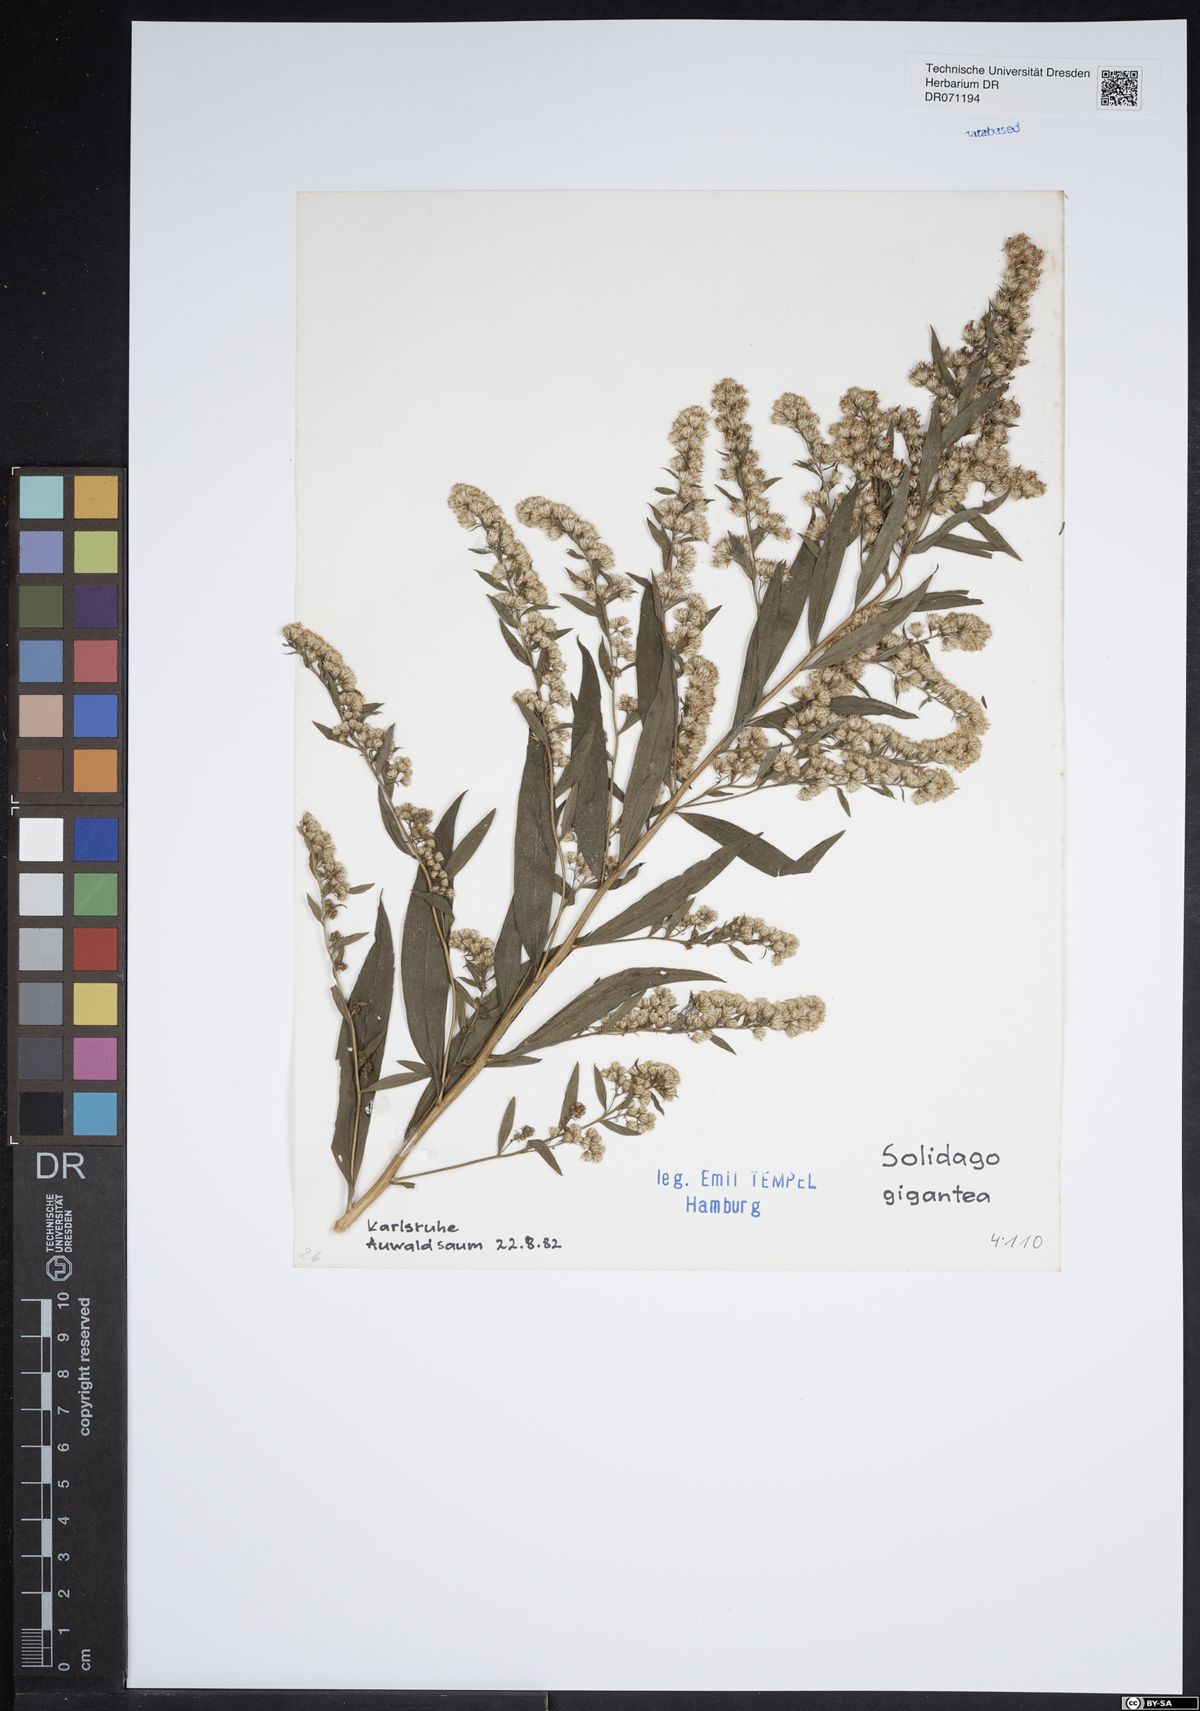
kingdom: Plantae
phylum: Tracheophyta
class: Magnoliopsida
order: Asterales
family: Asteraceae
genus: Solidago
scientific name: Solidago gigantea
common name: Giant goldenrod
